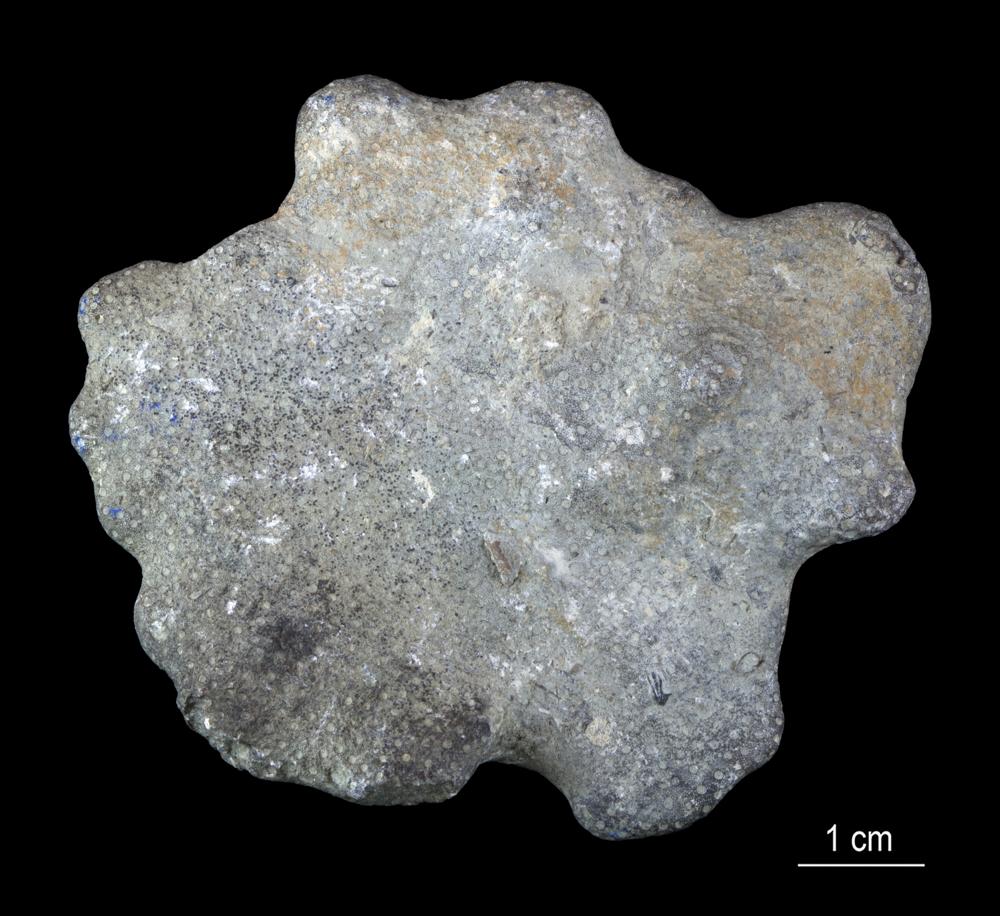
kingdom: Animalia
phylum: Cnidaria
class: Anthozoa
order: Heliolitina
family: Heliolitidae
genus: Heliolites
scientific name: Heliolites
